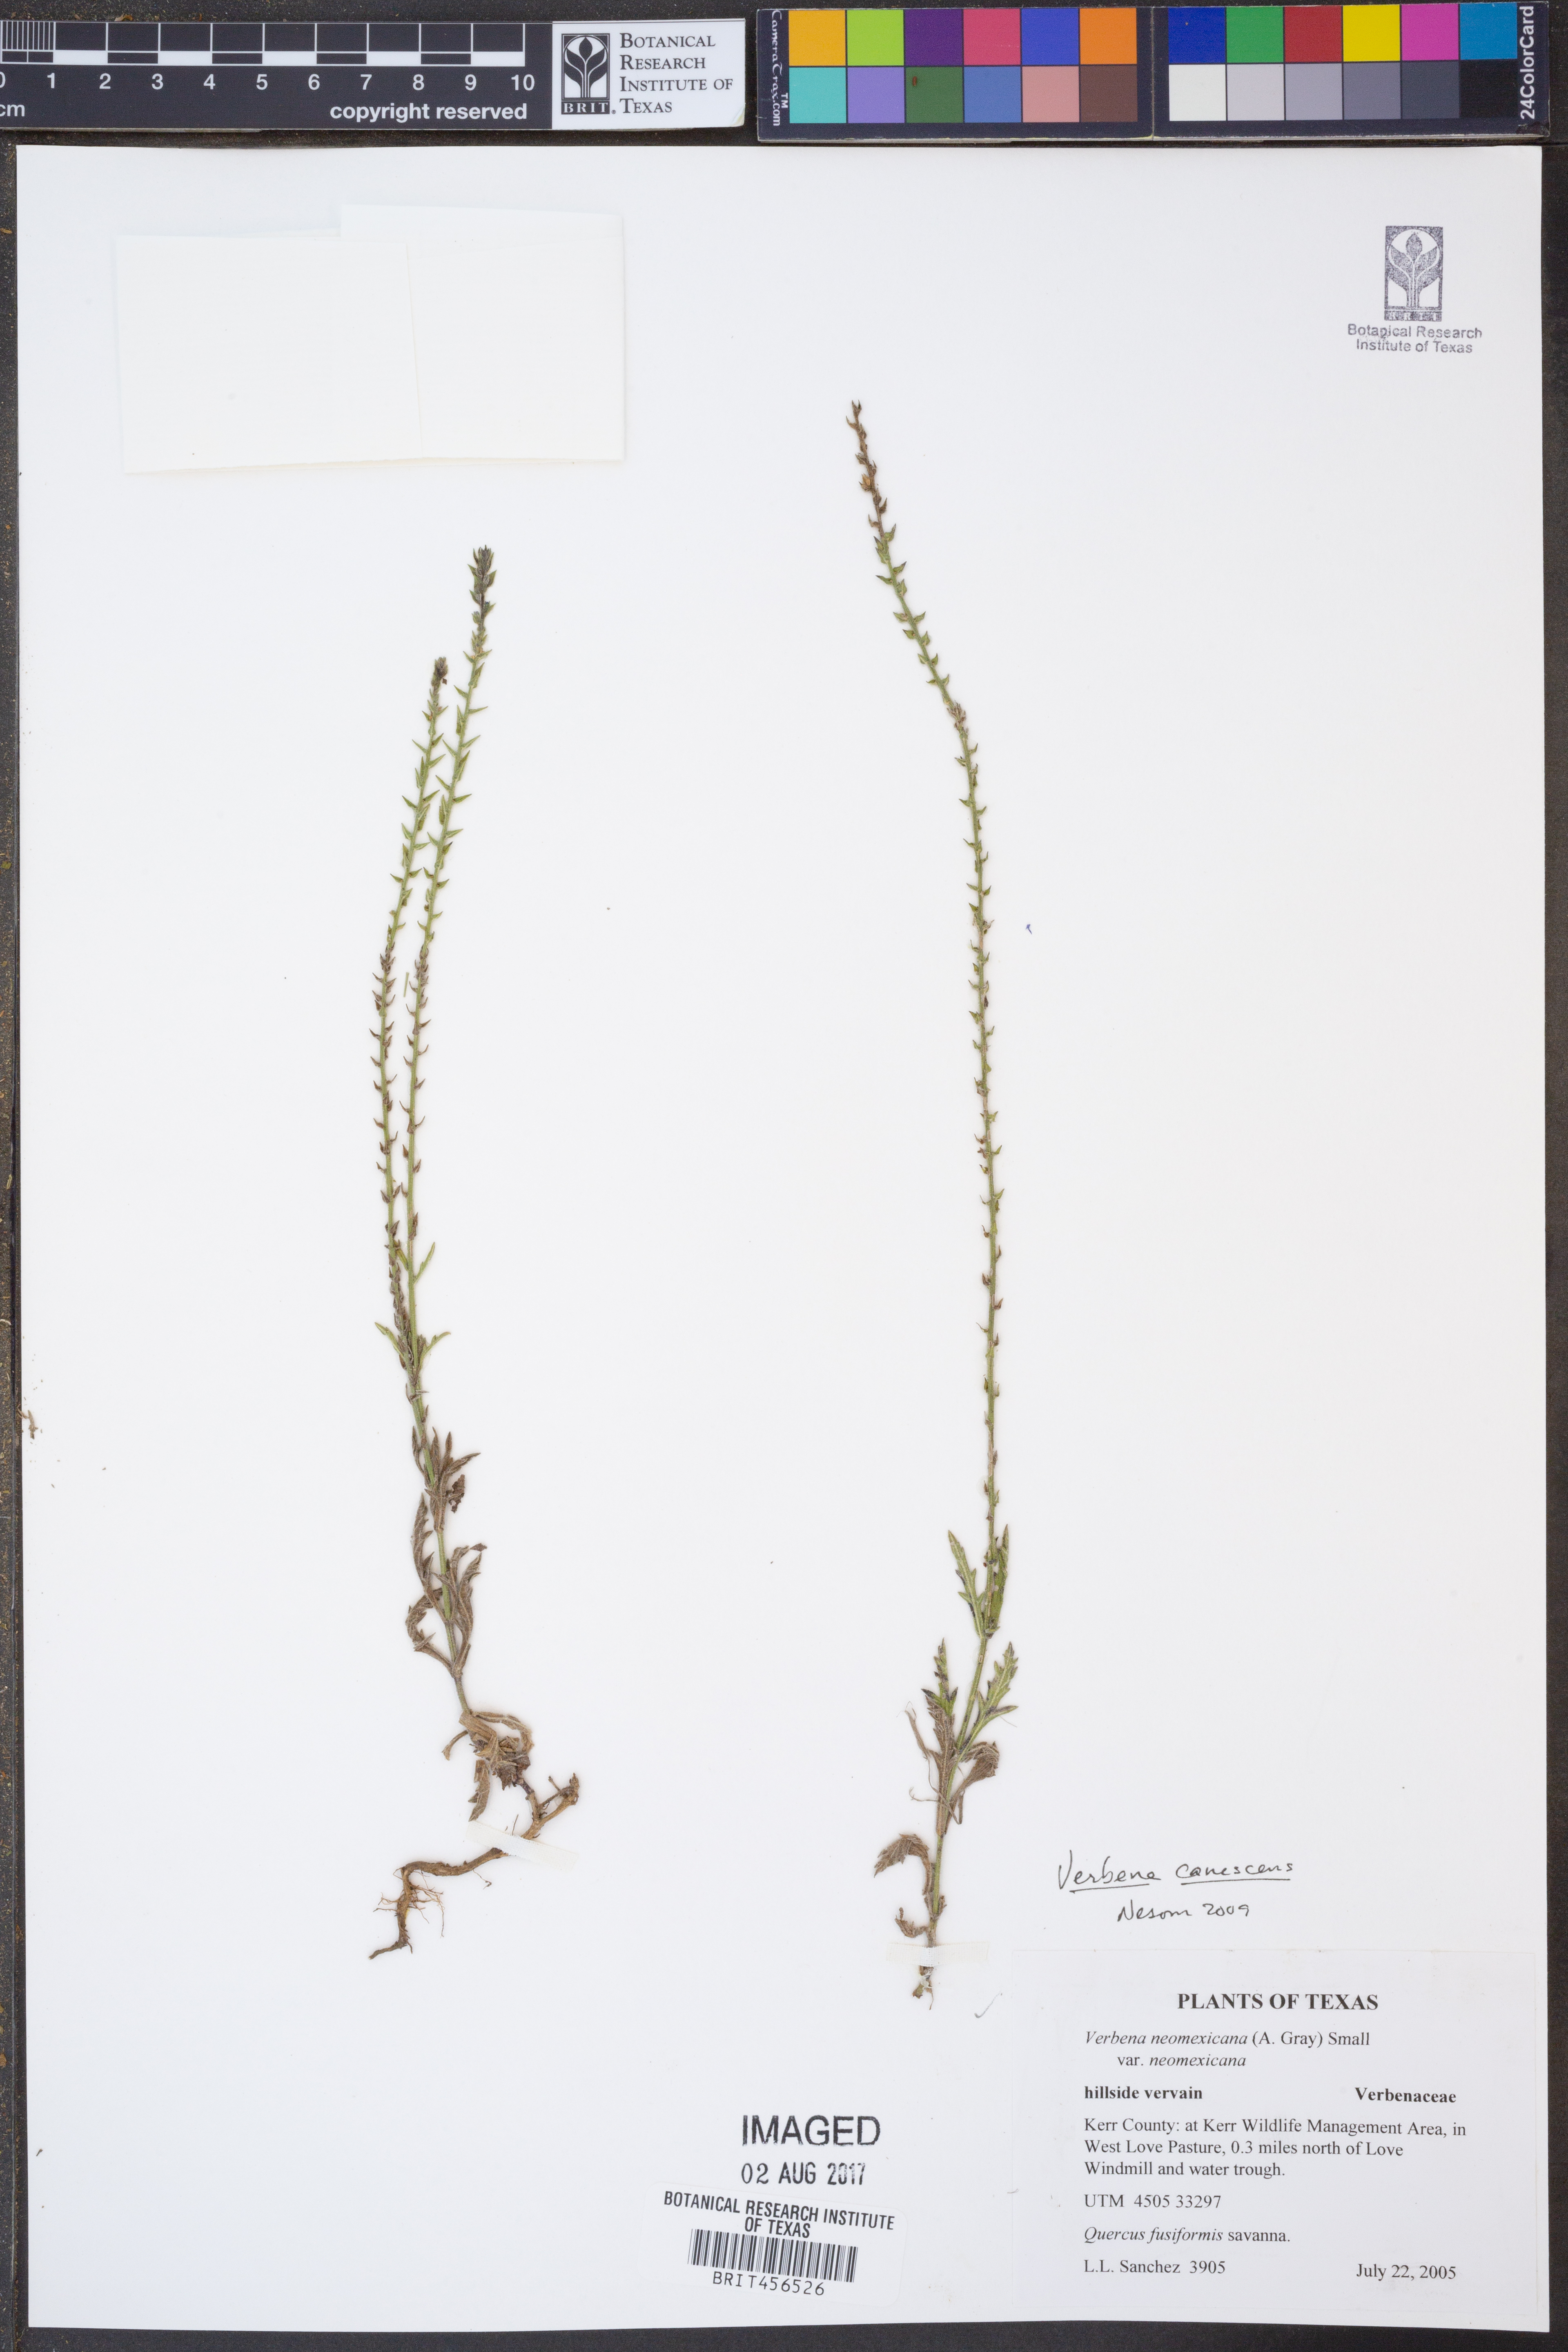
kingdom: Plantae
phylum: Tracheophyta
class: Magnoliopsida
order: Lamiales
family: Verbenaceae
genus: Verbena
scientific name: Verbena canescens
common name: Gray vervain
